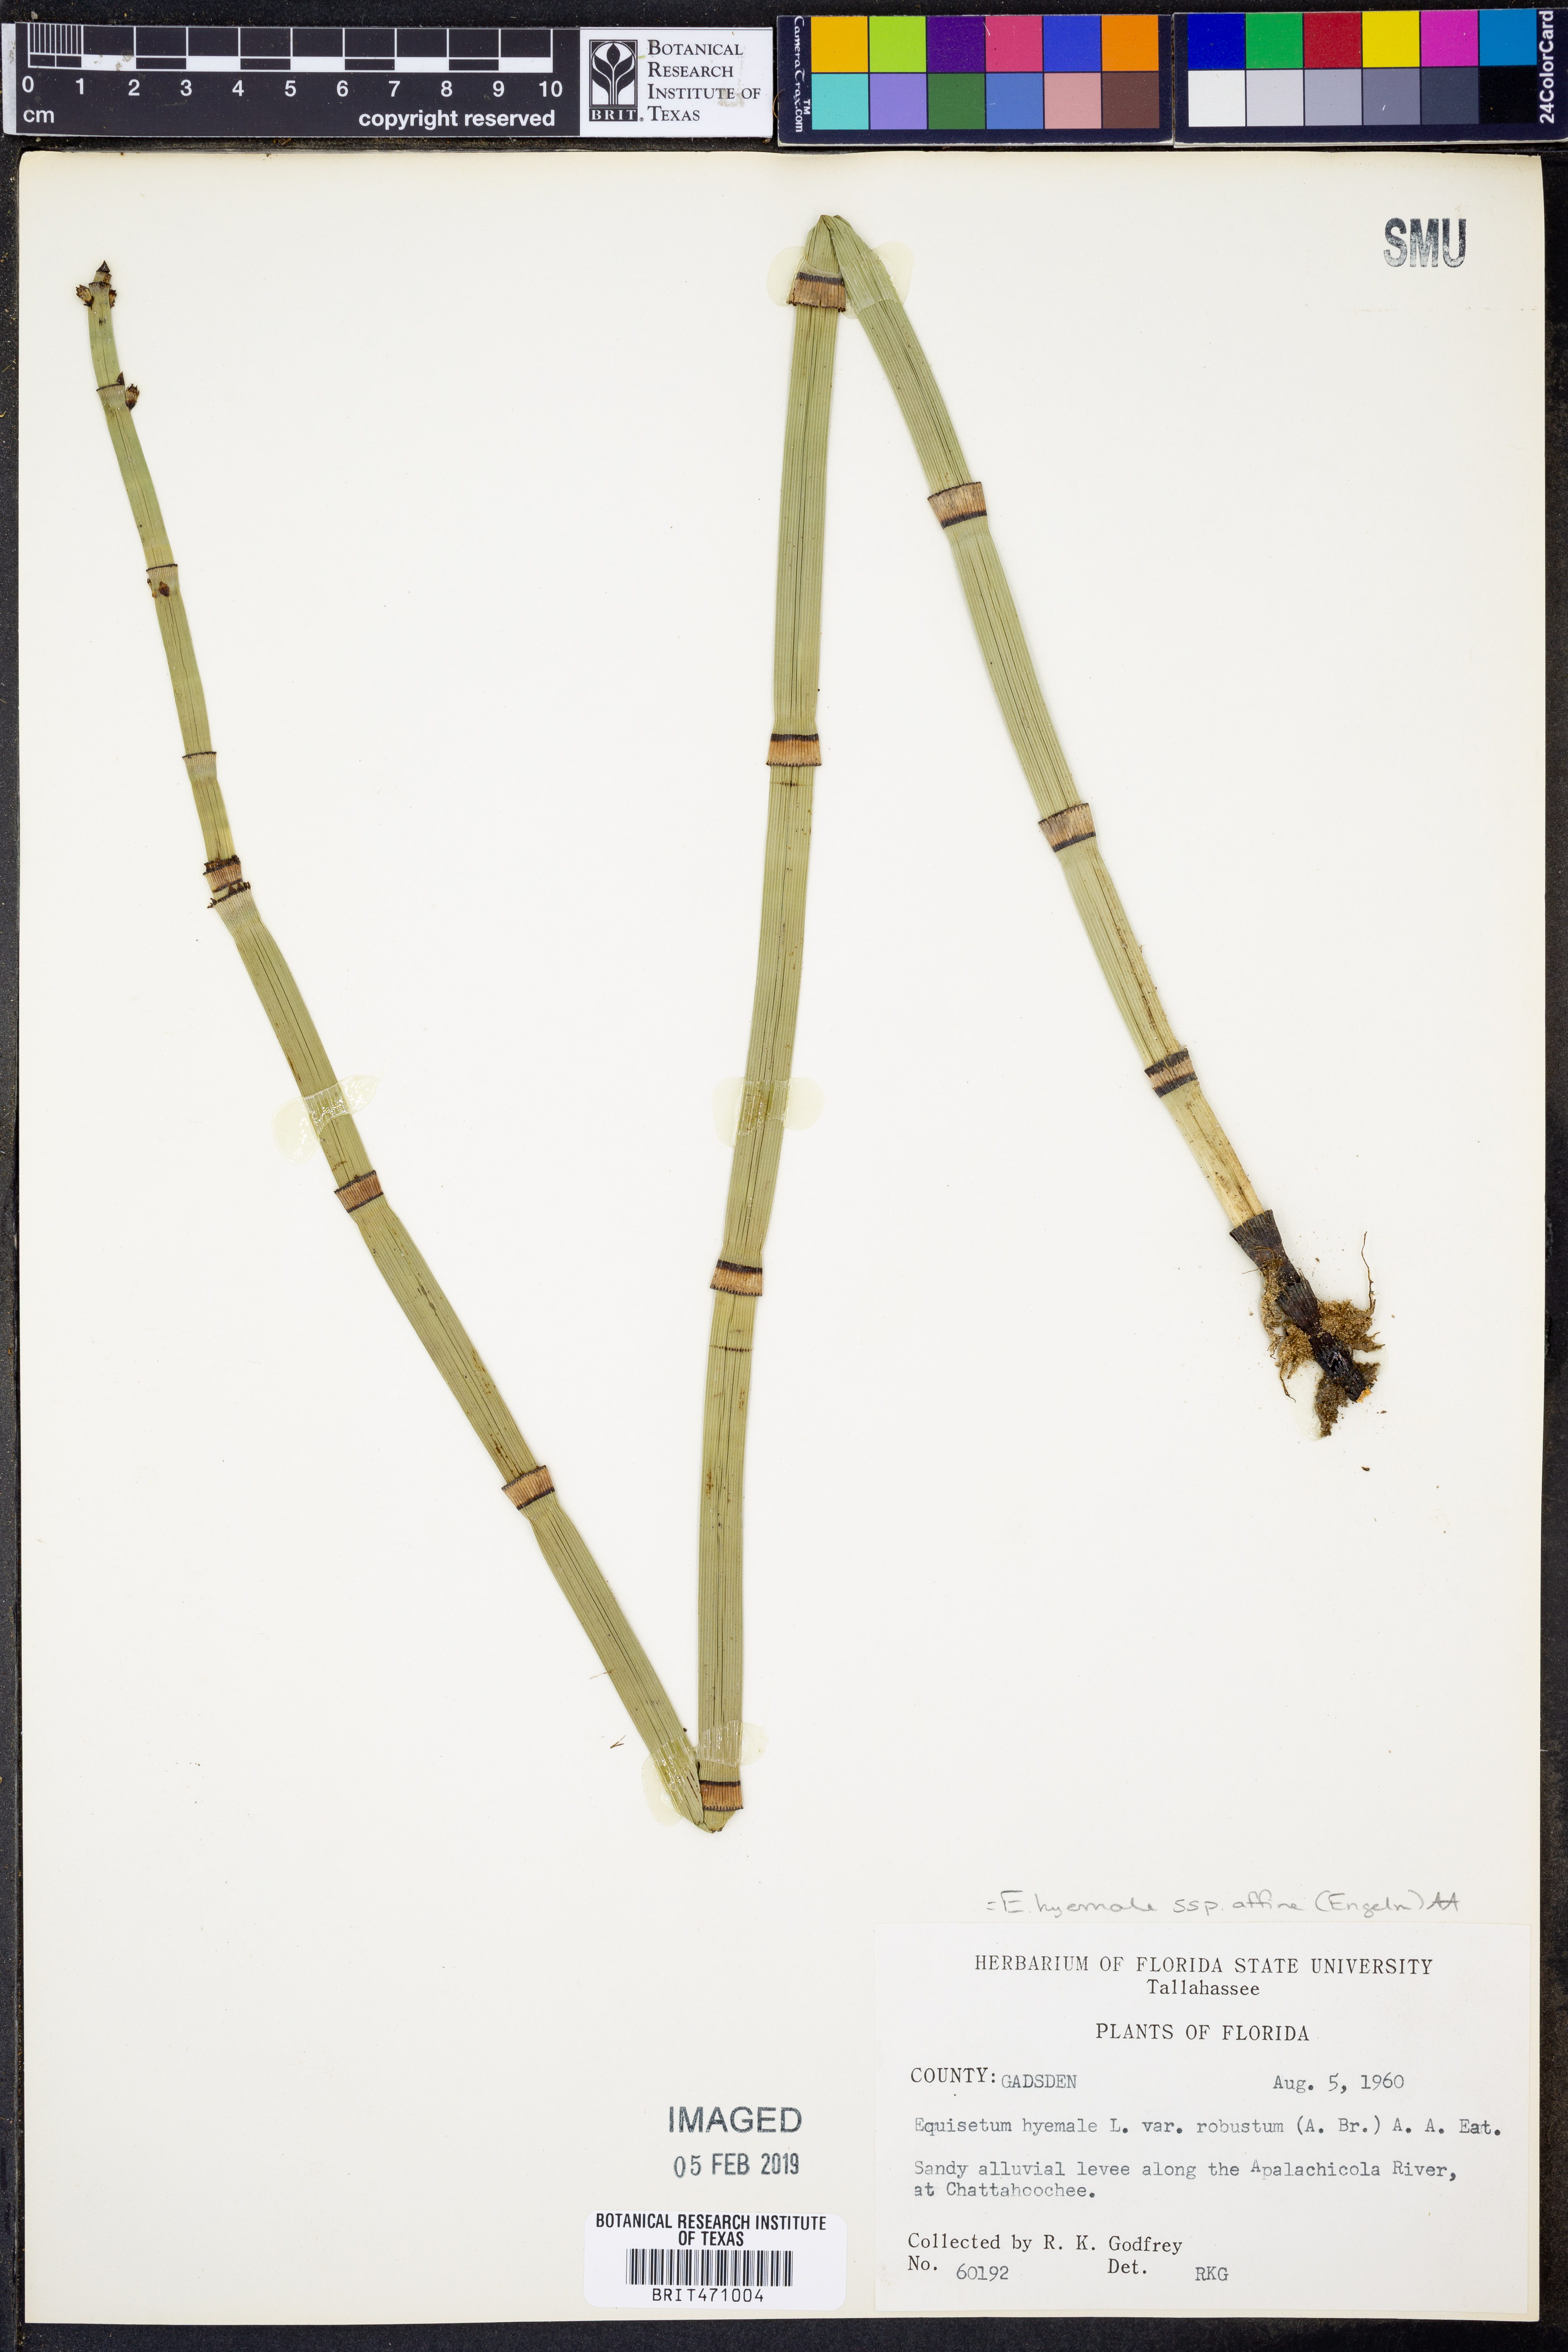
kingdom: Plantae
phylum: Tracheophyta
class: Polypodiopsida
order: Equisetales
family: Equisetaceae
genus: Equisetum
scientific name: Equisetum praealtum
